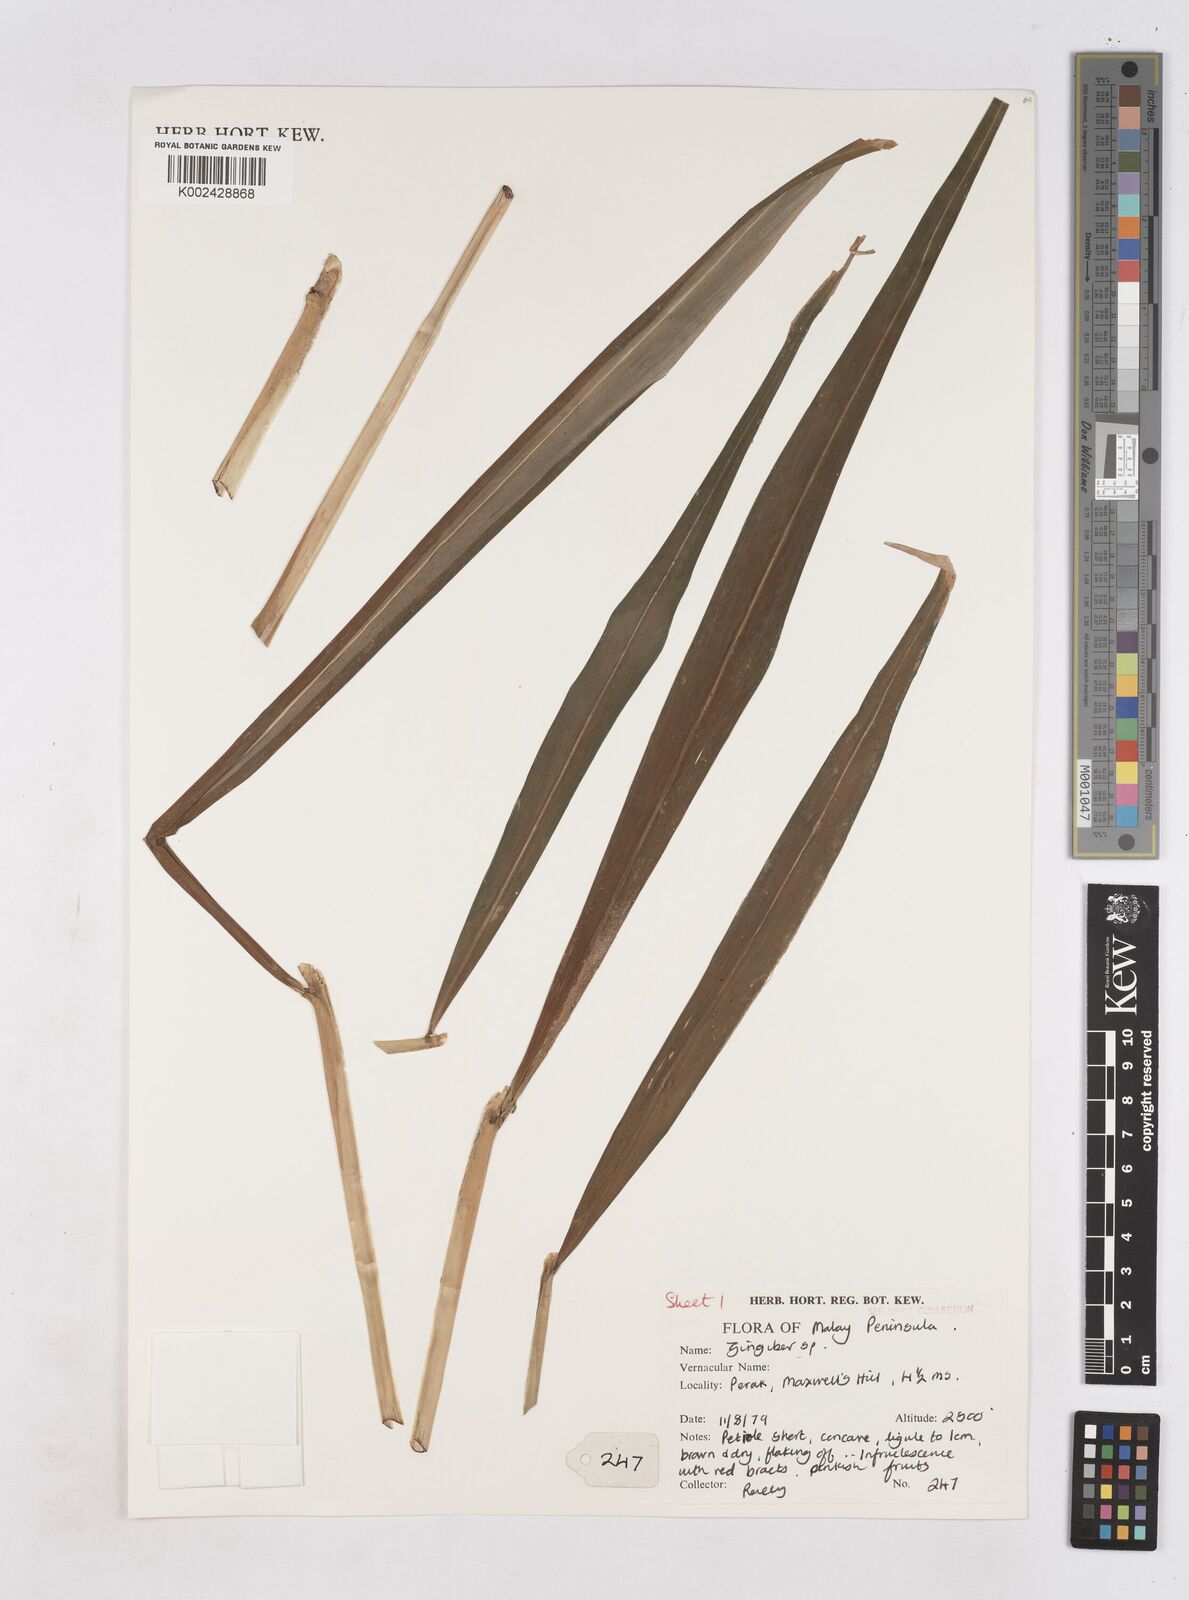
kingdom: Plantae
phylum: Tracheophyta
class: Liliopsida
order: Zingiberales
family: Zingiberaceae
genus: Zingiber
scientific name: Zingiber
